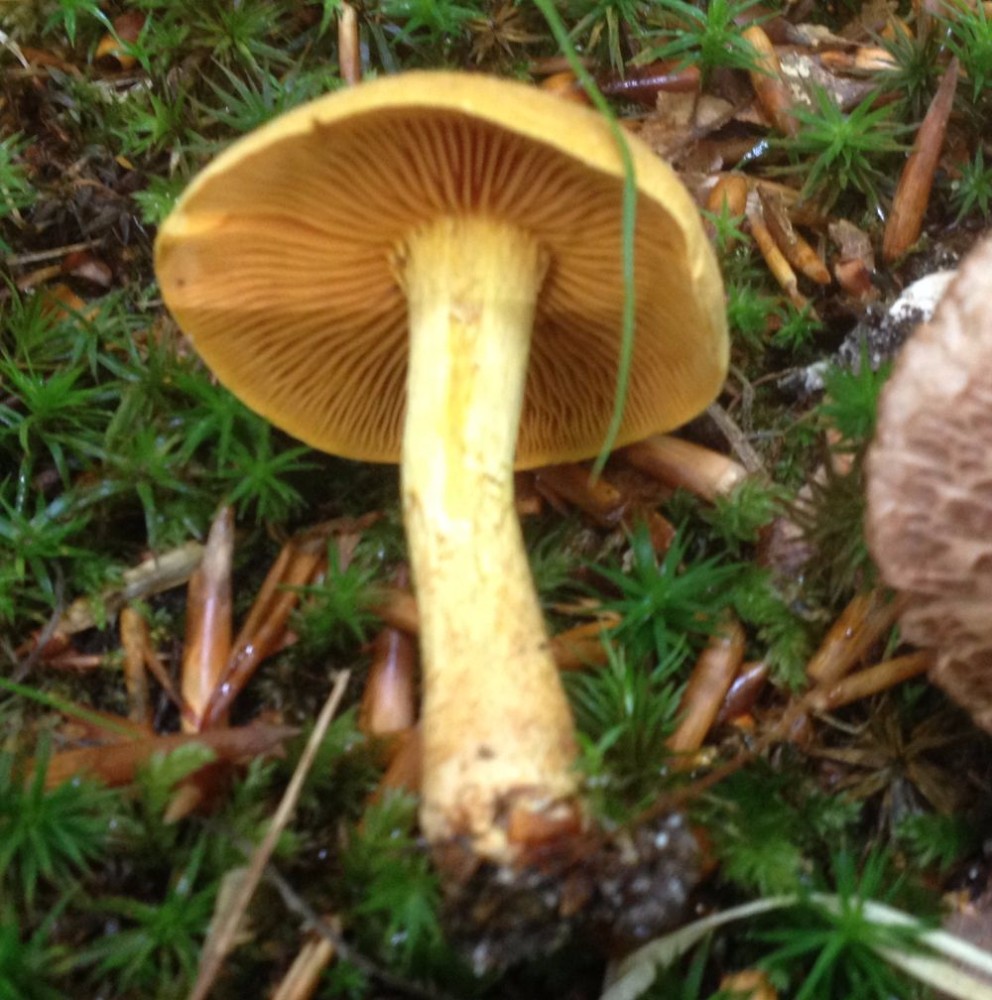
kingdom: Fungi
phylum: Basidiomycota
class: Agaricomycetes
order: Agaricales
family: Tricholomataceae
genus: Tricholoma
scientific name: Tricholoma sulphureum
